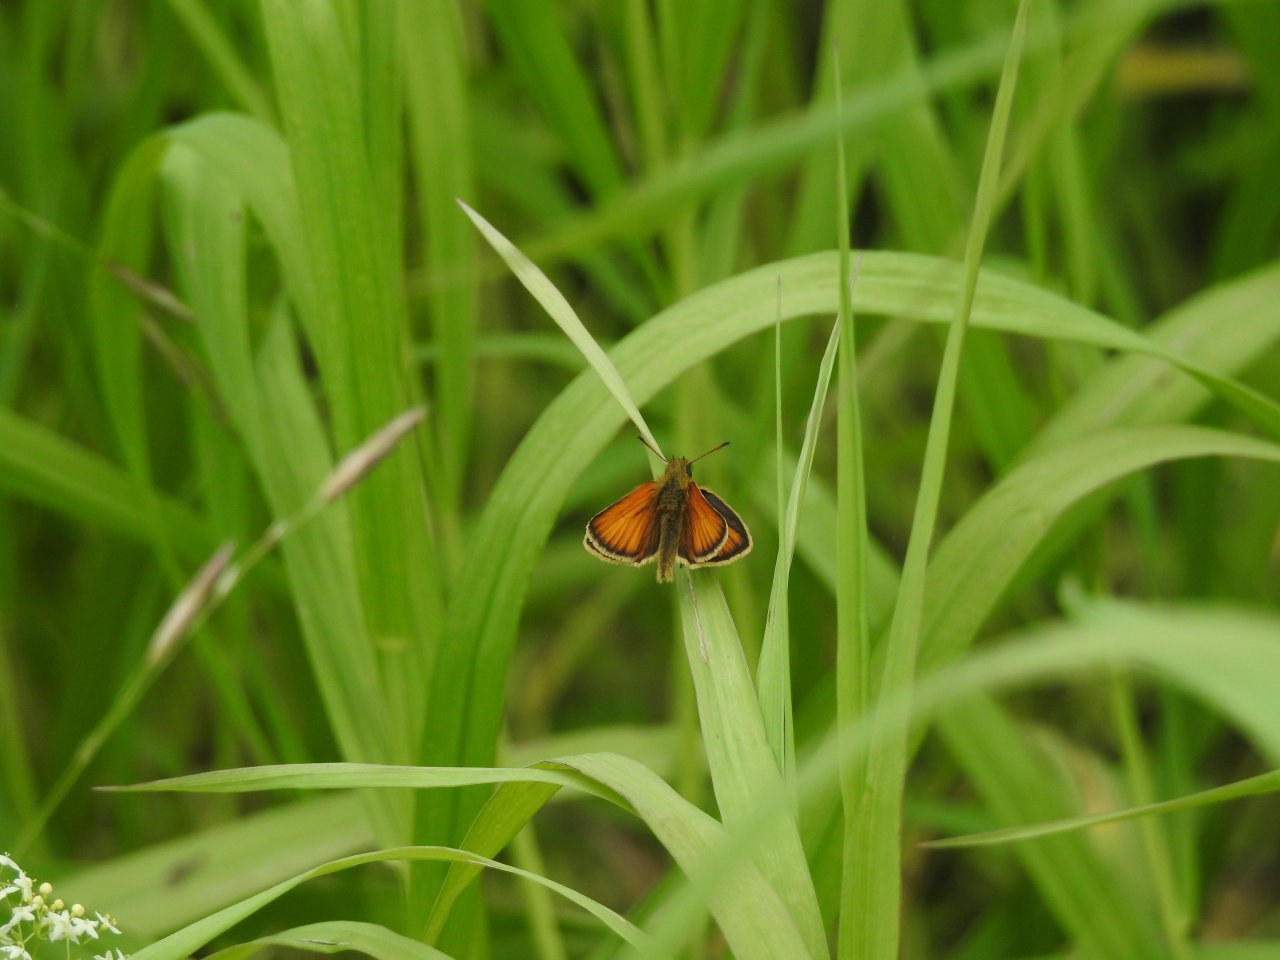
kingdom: Animalia
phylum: Arthropoda
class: Insecta
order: Lepidoptera
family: Hesperiidae
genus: Thymelicus
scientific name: Thymelicus lineola
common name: European Skipper
